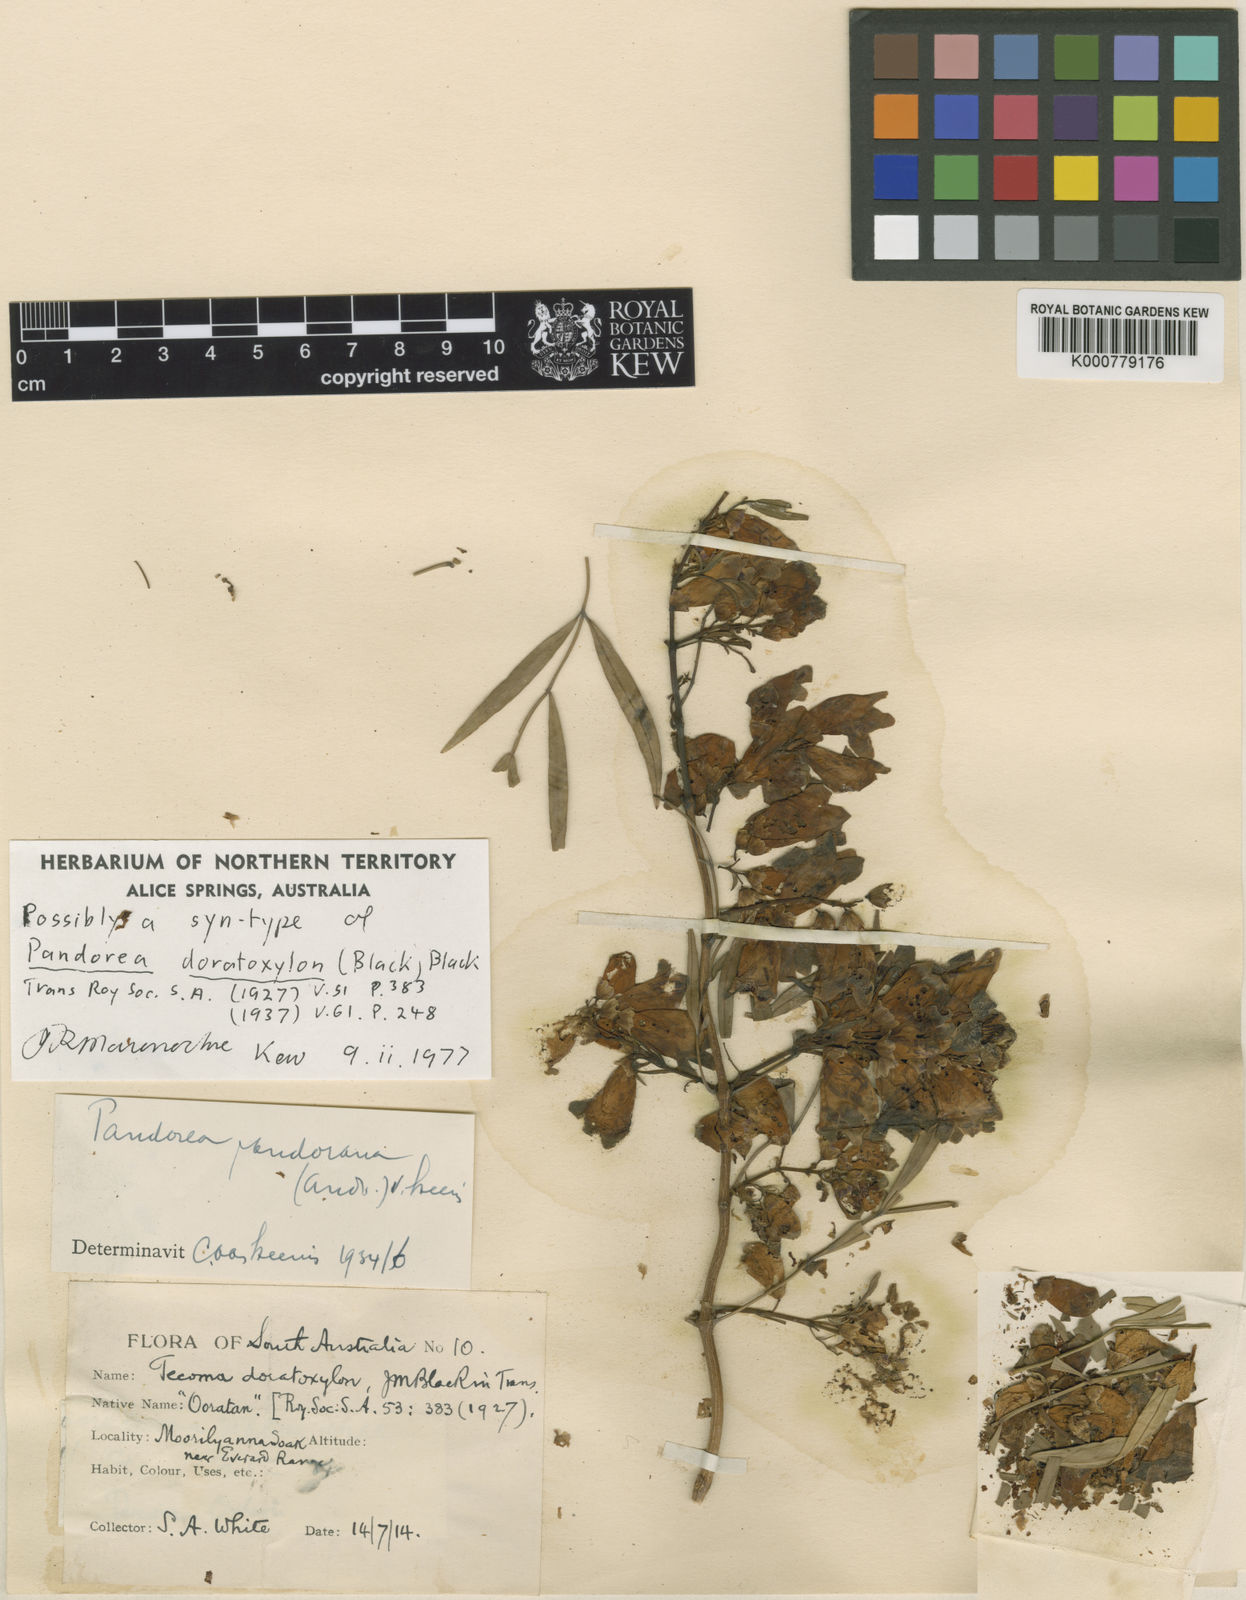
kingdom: Plantae
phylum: Tracheophyta
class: Magnoliopsida
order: Lamiales
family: Bignoniaceae
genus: Pandorea
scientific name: Pandorea doratoxylon
